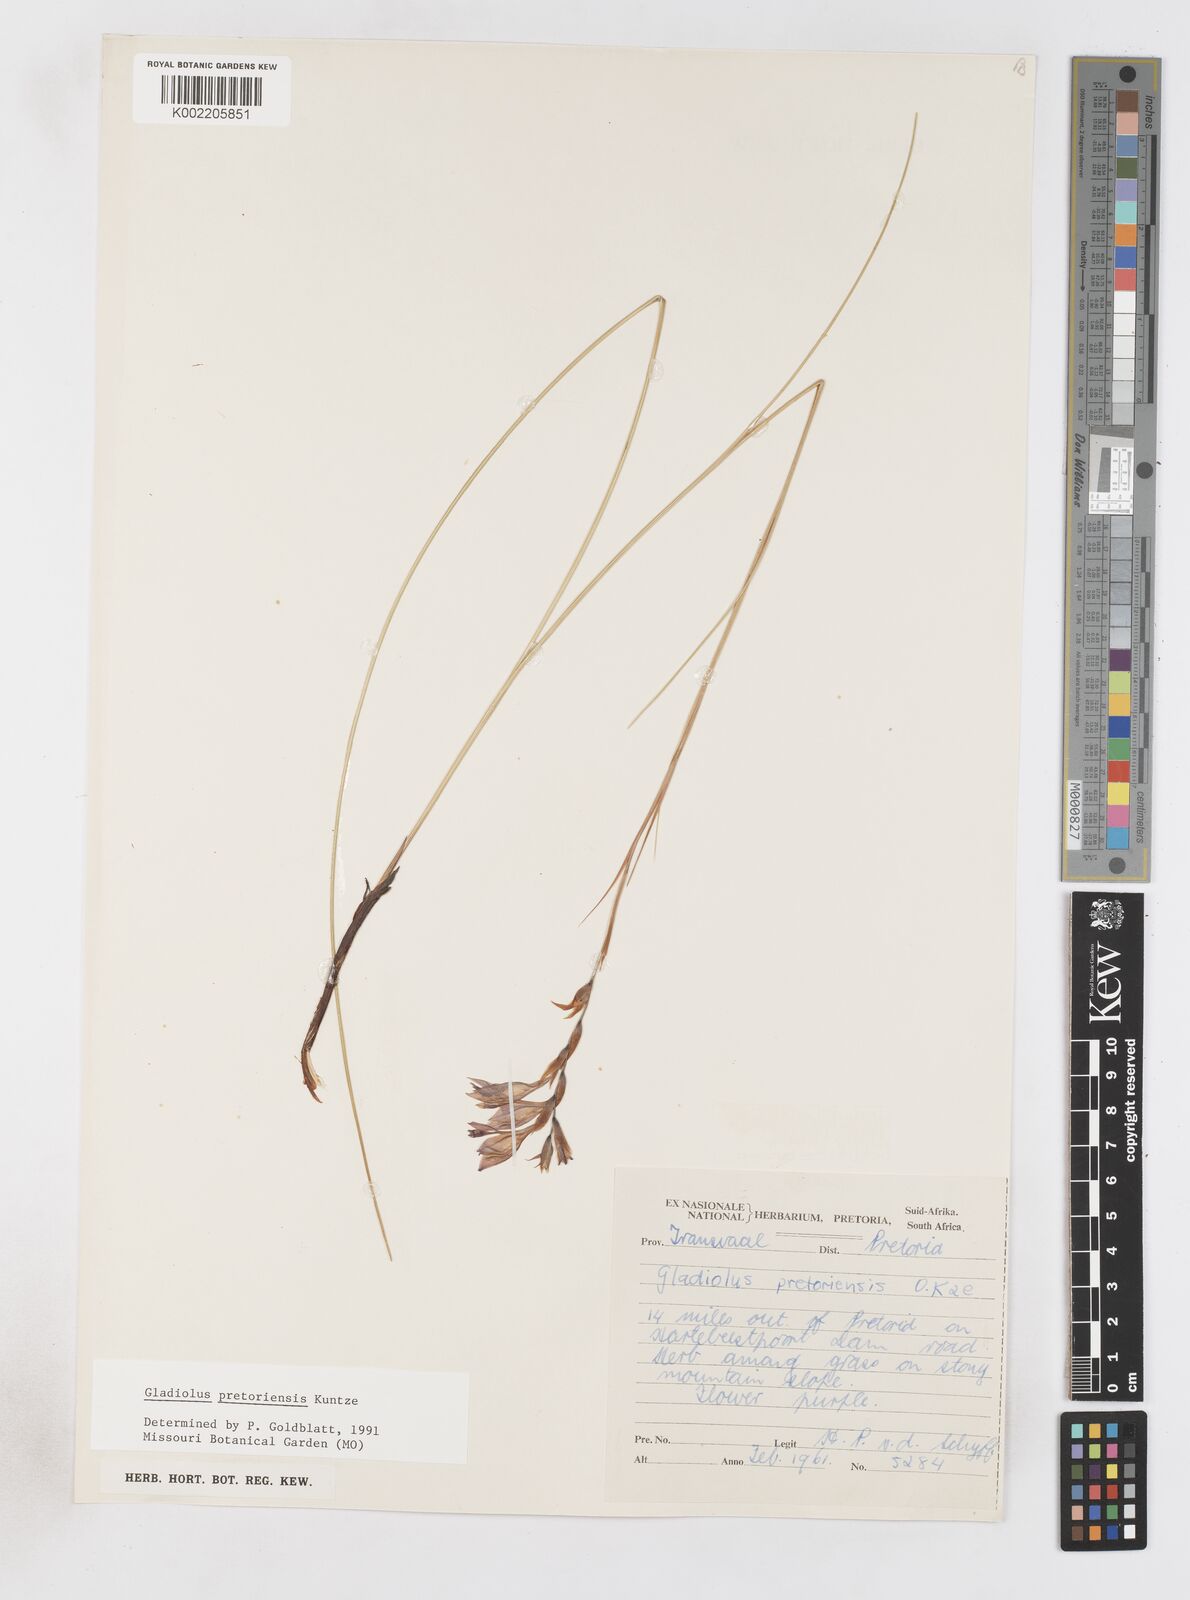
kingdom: Plantae
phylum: Tracheophyta
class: Liliopsida
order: Asparagales
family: Iridaceae
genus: Gladiolus
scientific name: Gladiolus pretoriensis
